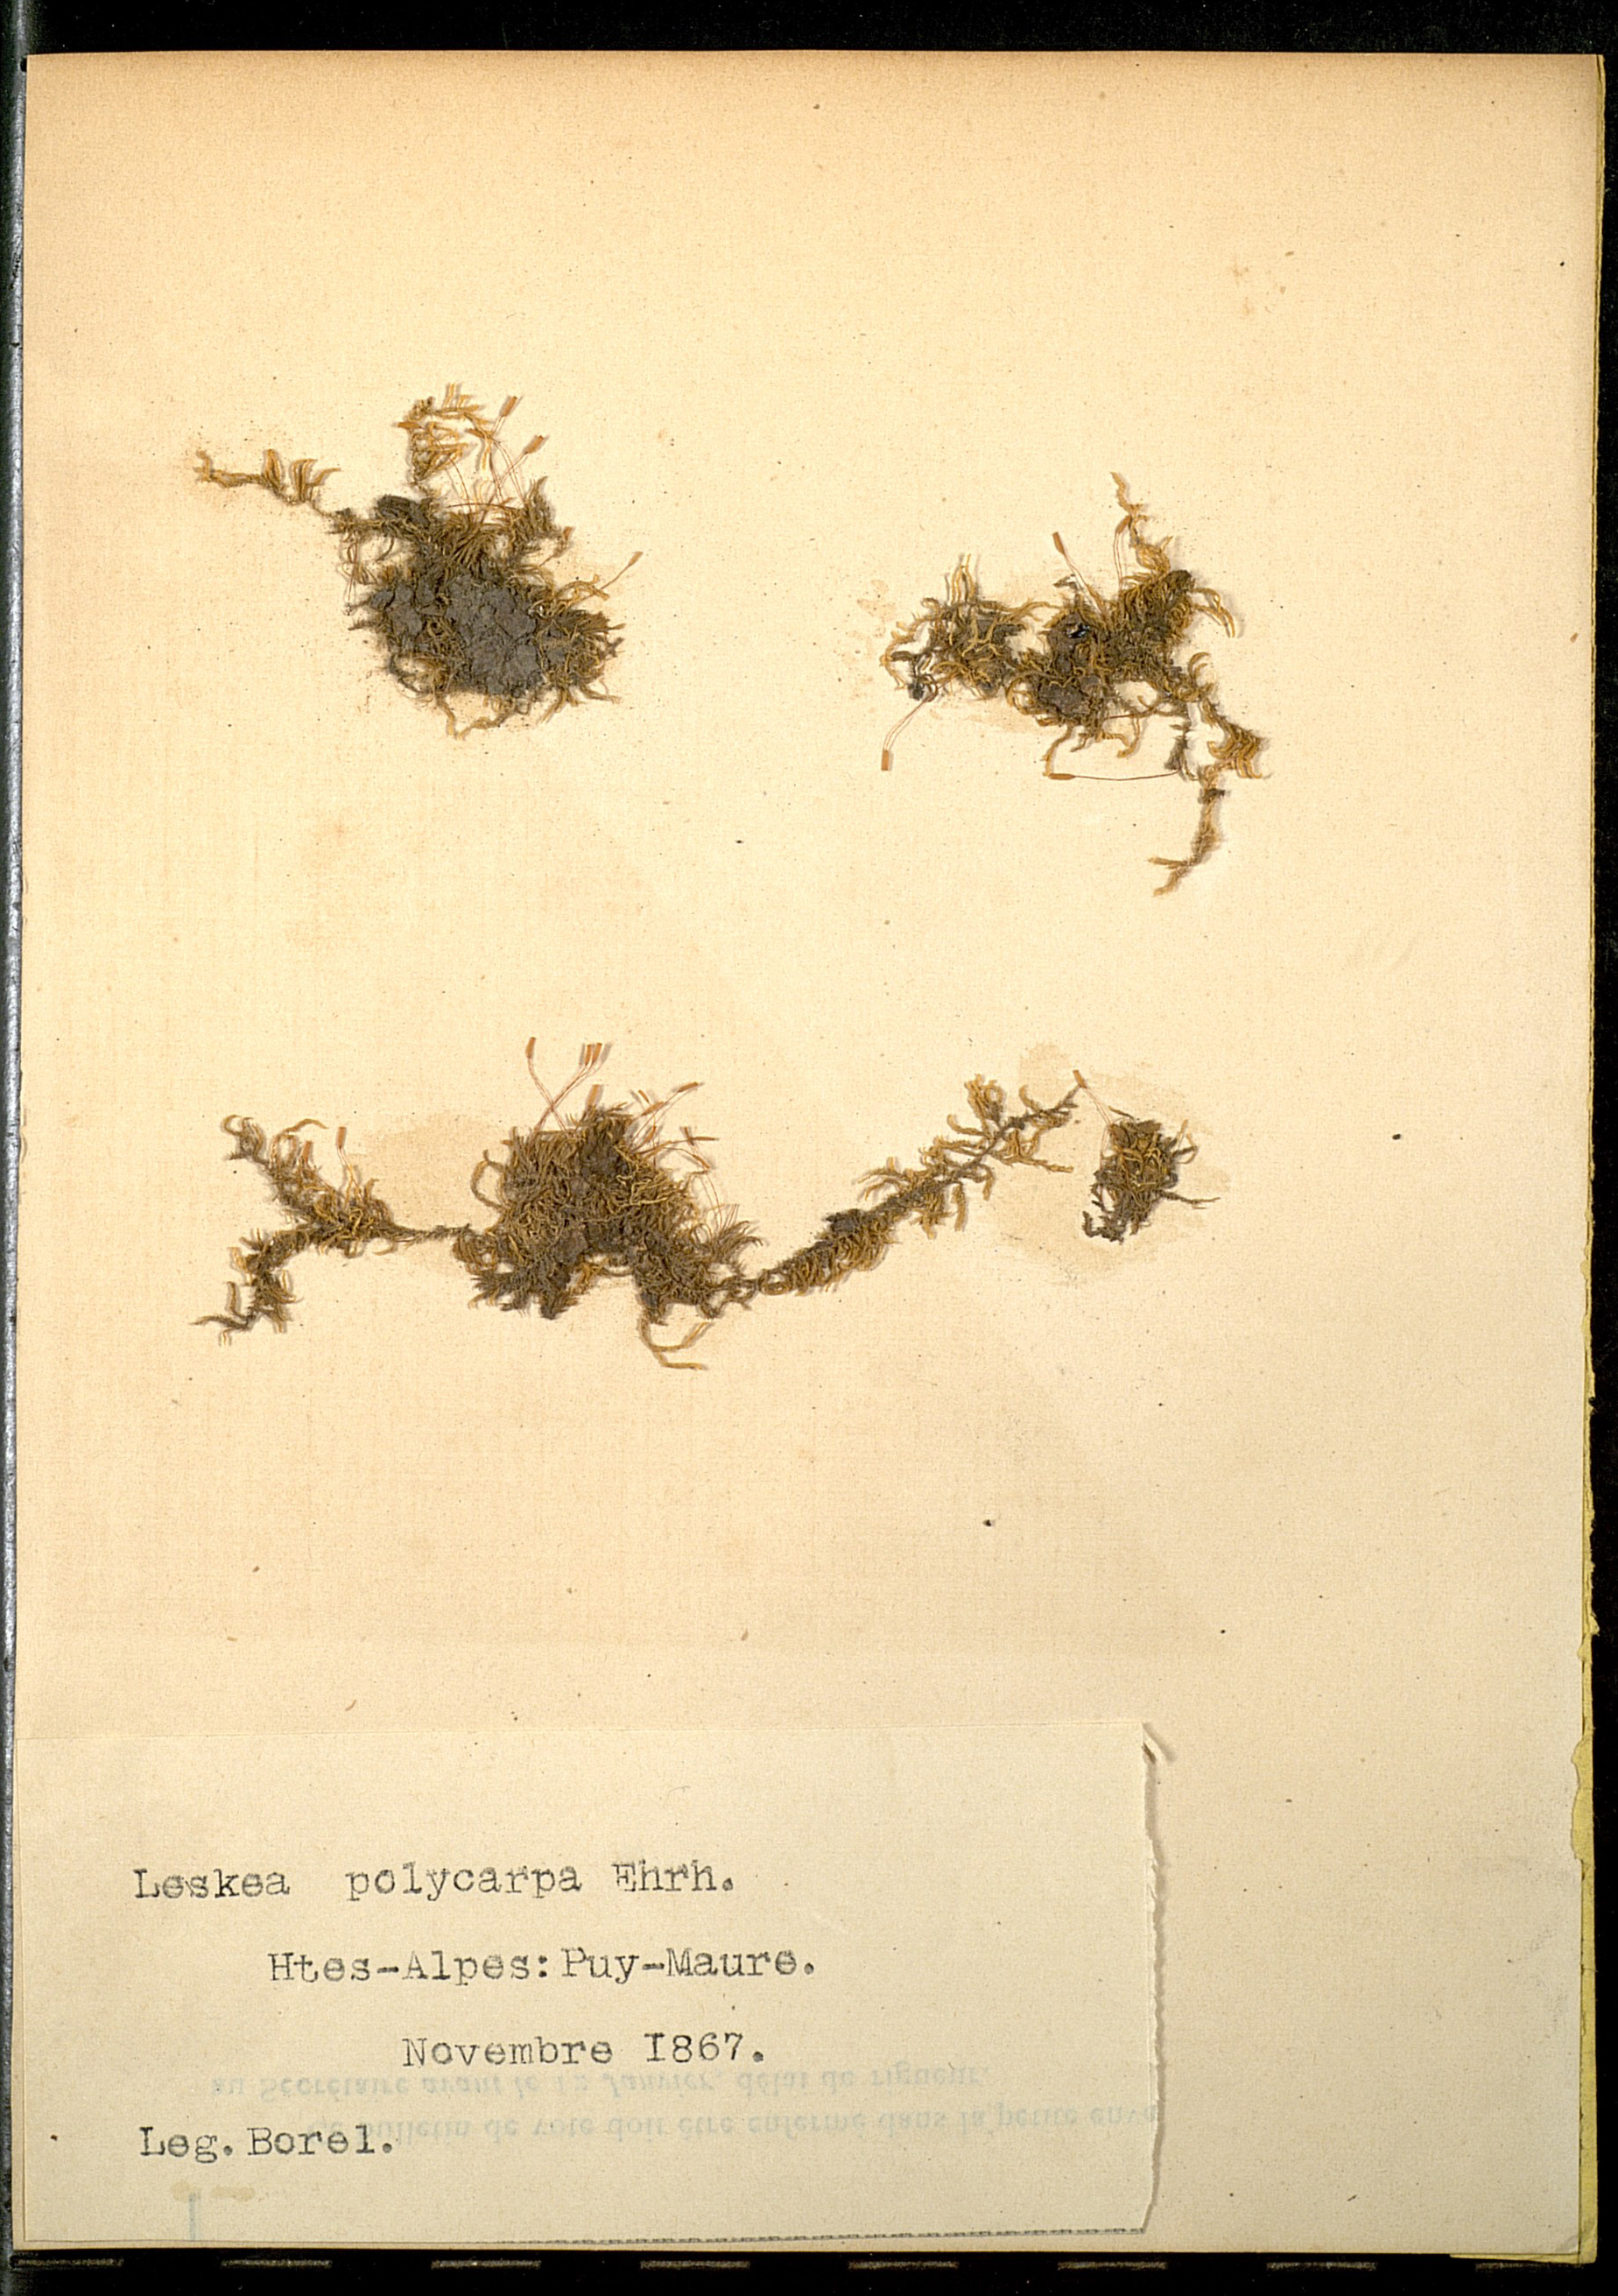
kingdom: Plantae
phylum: Bryophyta
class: Bryopsida
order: Hypnales
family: Leskeaceae
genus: Leskea
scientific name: Leskea polycarpa
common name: Many-fruited leske's moss
